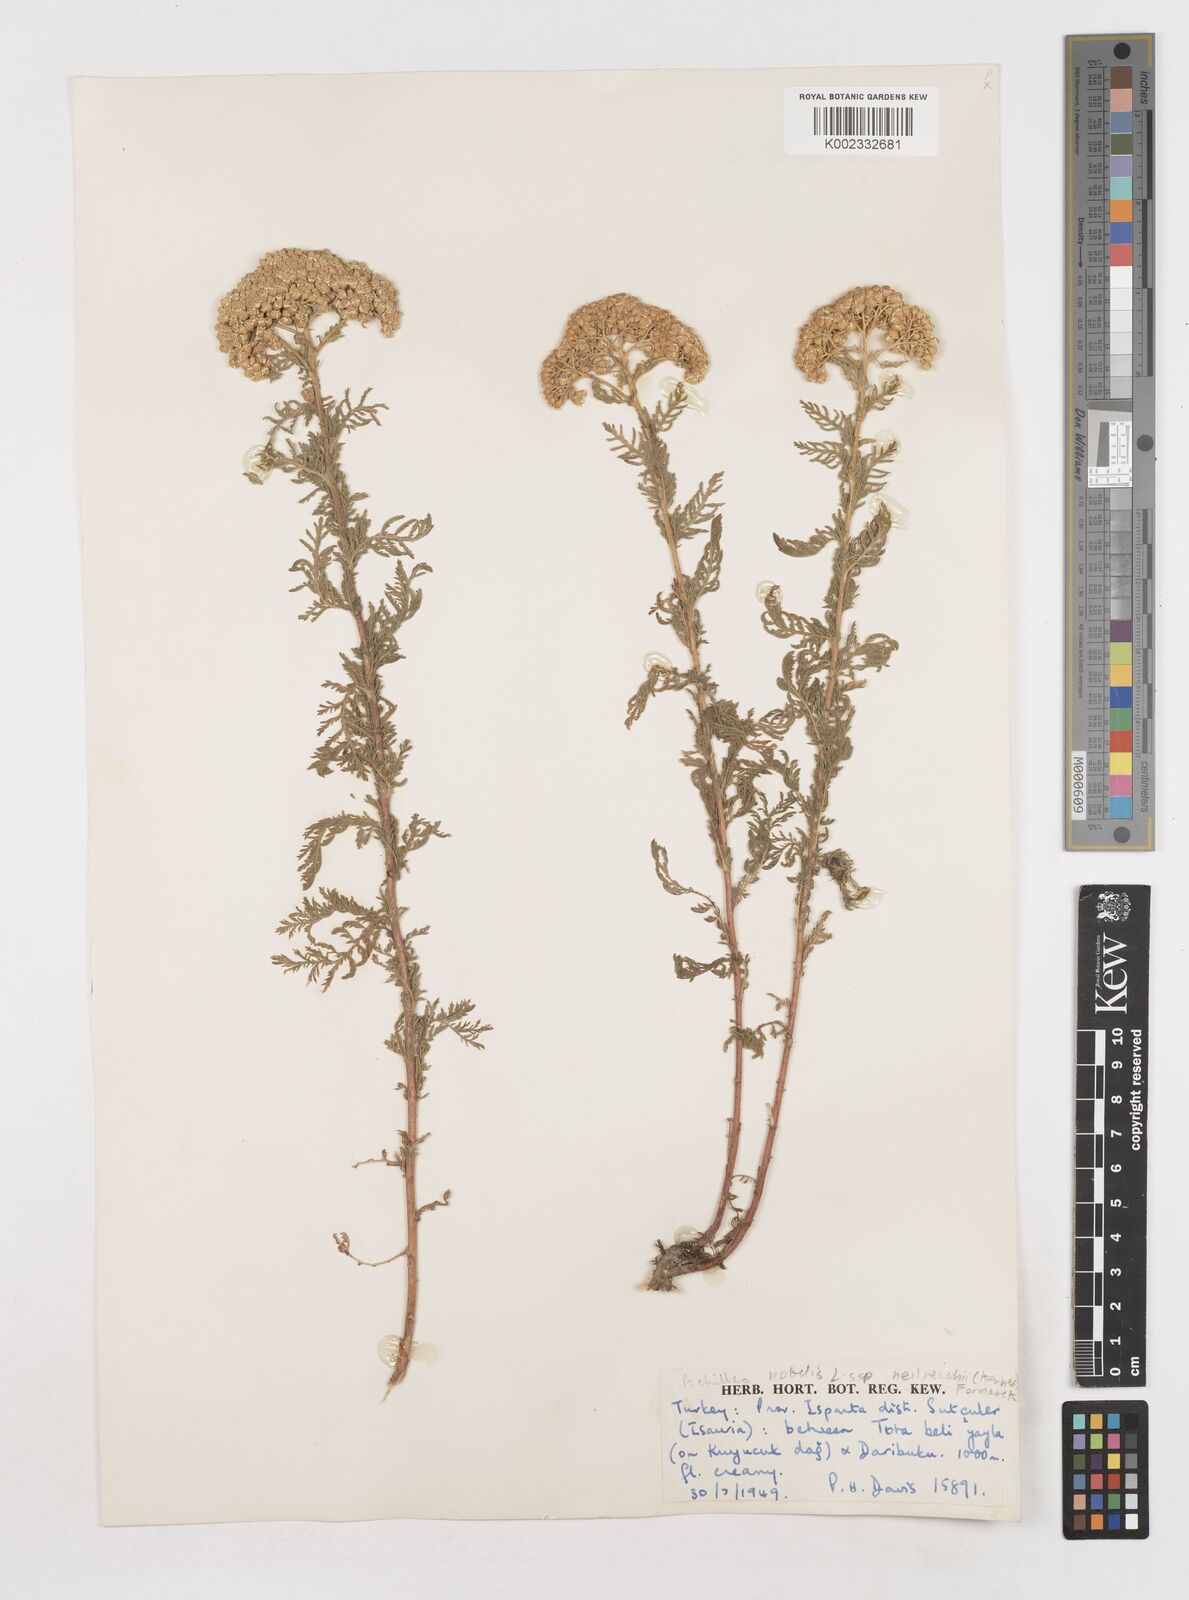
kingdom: Plantae
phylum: Tracheophyta
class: Magnoliopsida
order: Asterales
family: Asteraceae
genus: Achillea
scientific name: Achillea nobilis
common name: Noble yarrow
